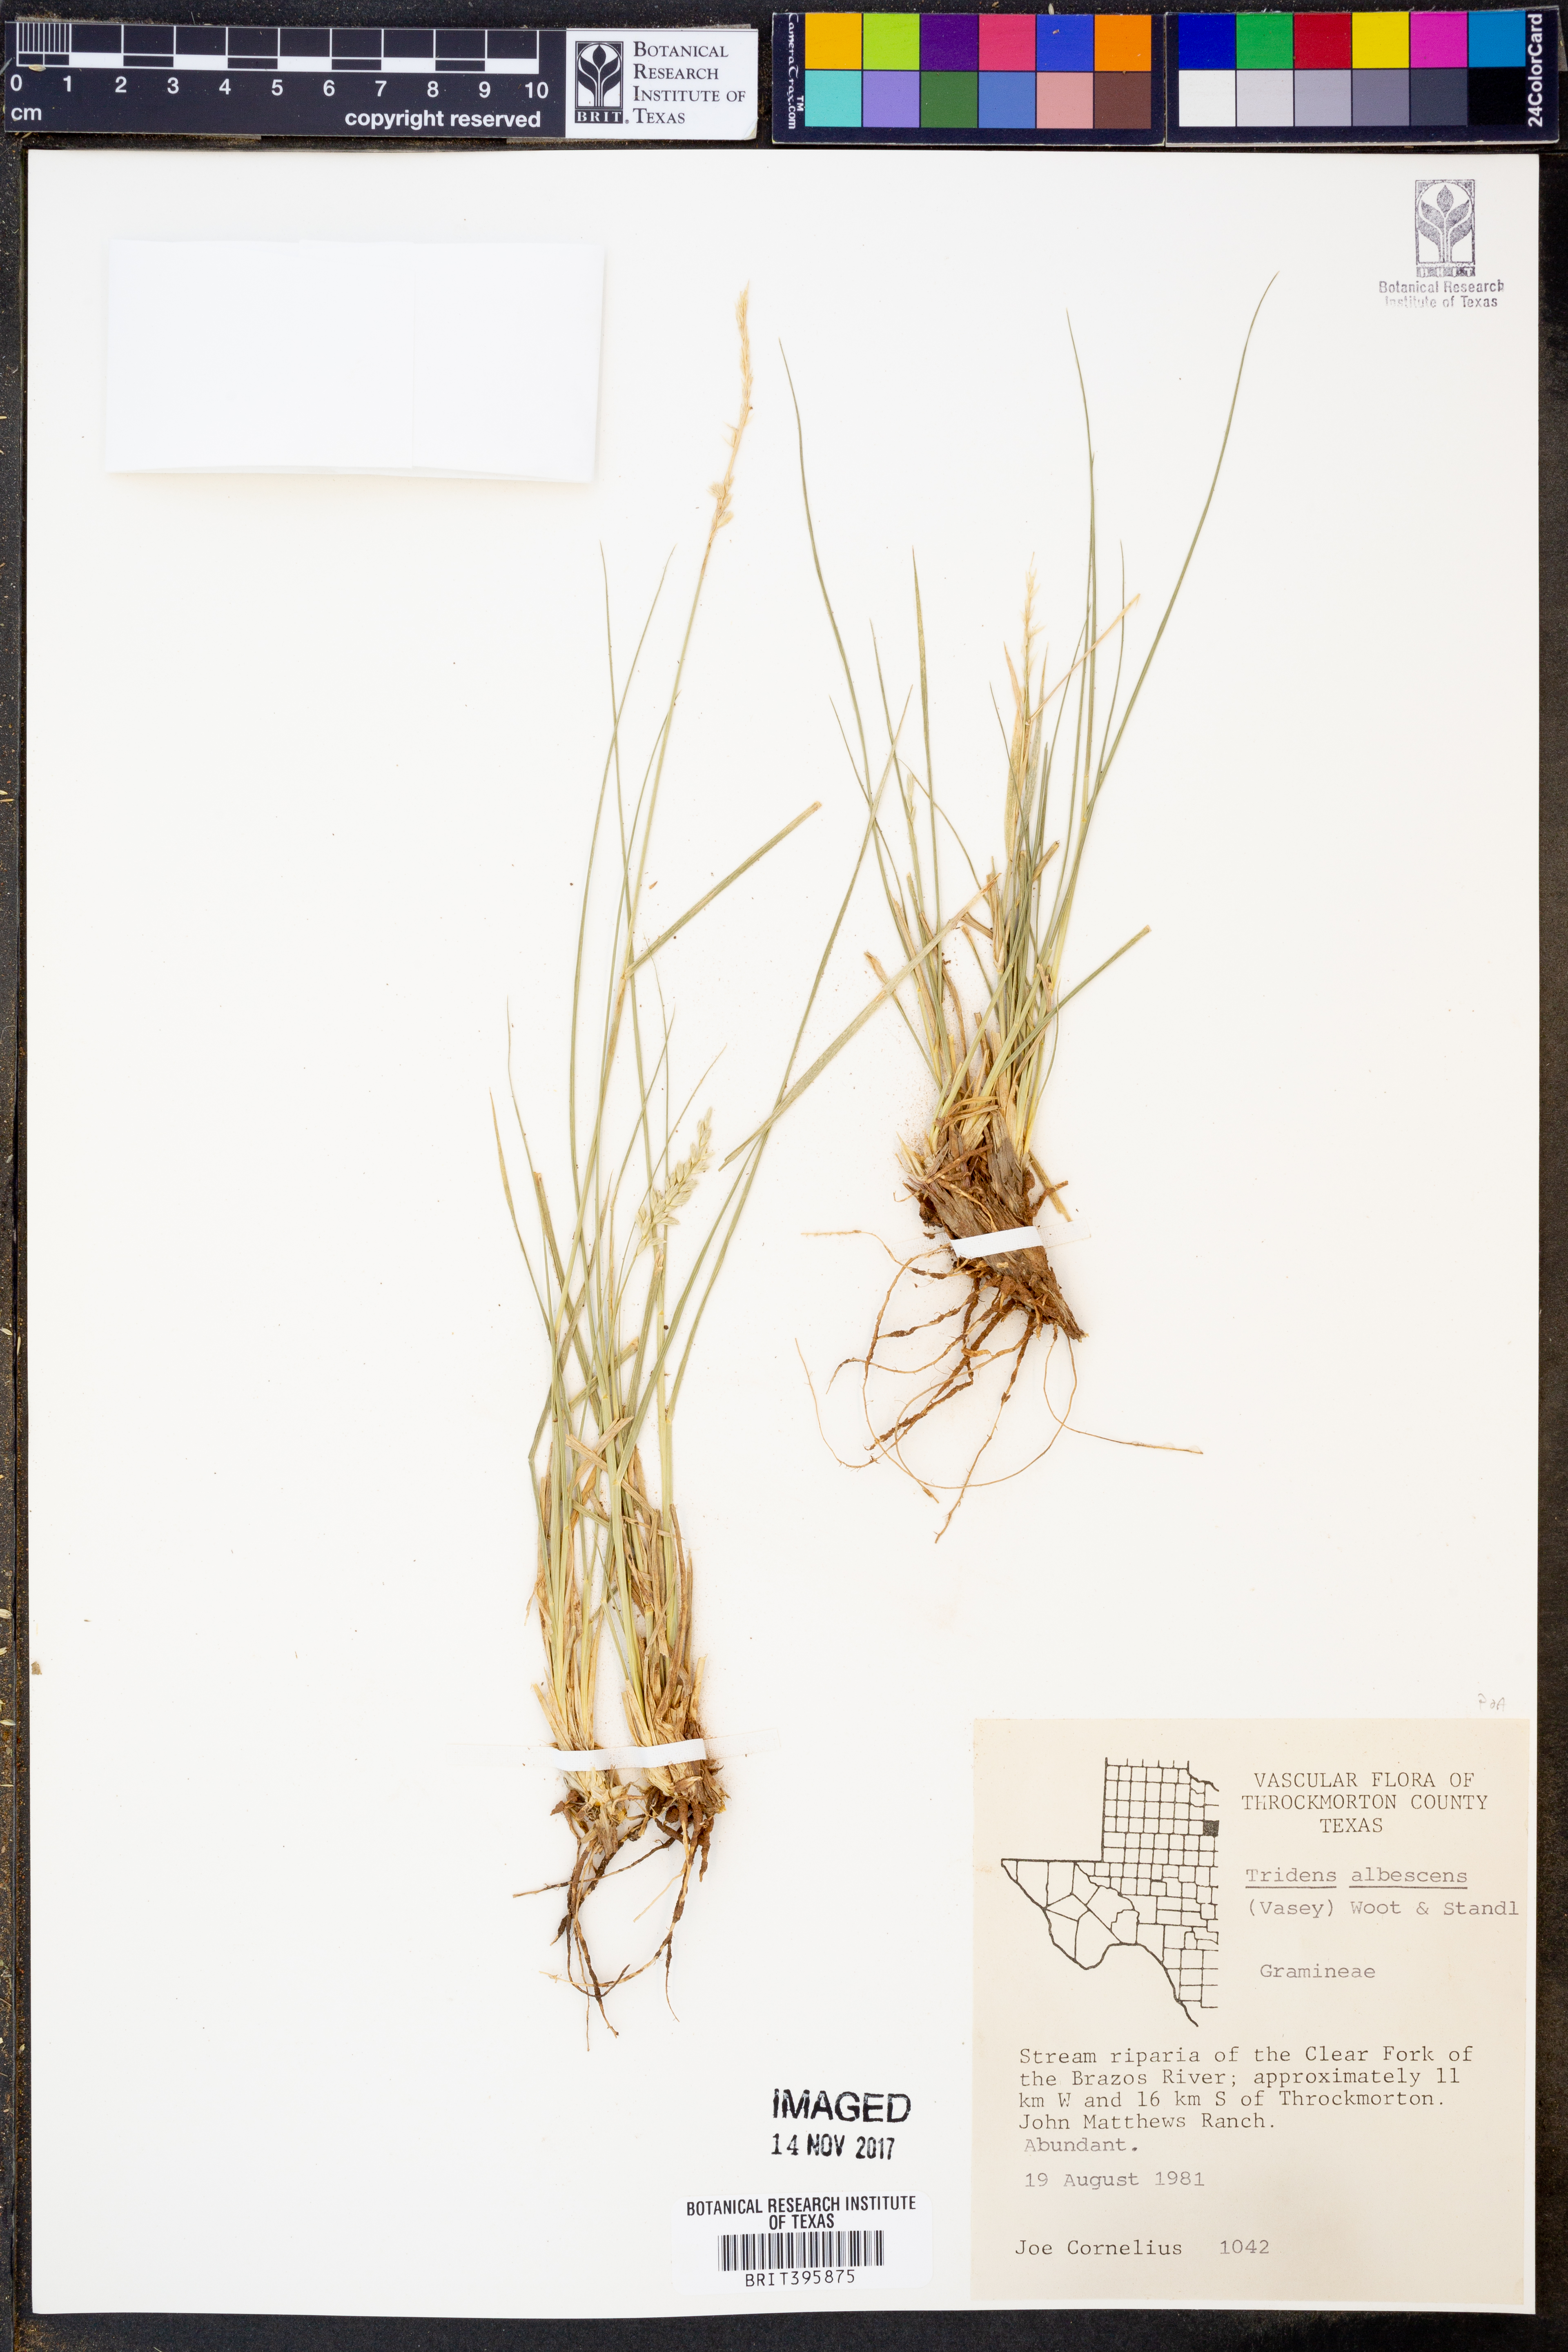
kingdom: Plantae
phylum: Tracheophyta
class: Liliopsida
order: Poales
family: Poaceae
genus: Tridens
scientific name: Tridens albescens
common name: White tridens
